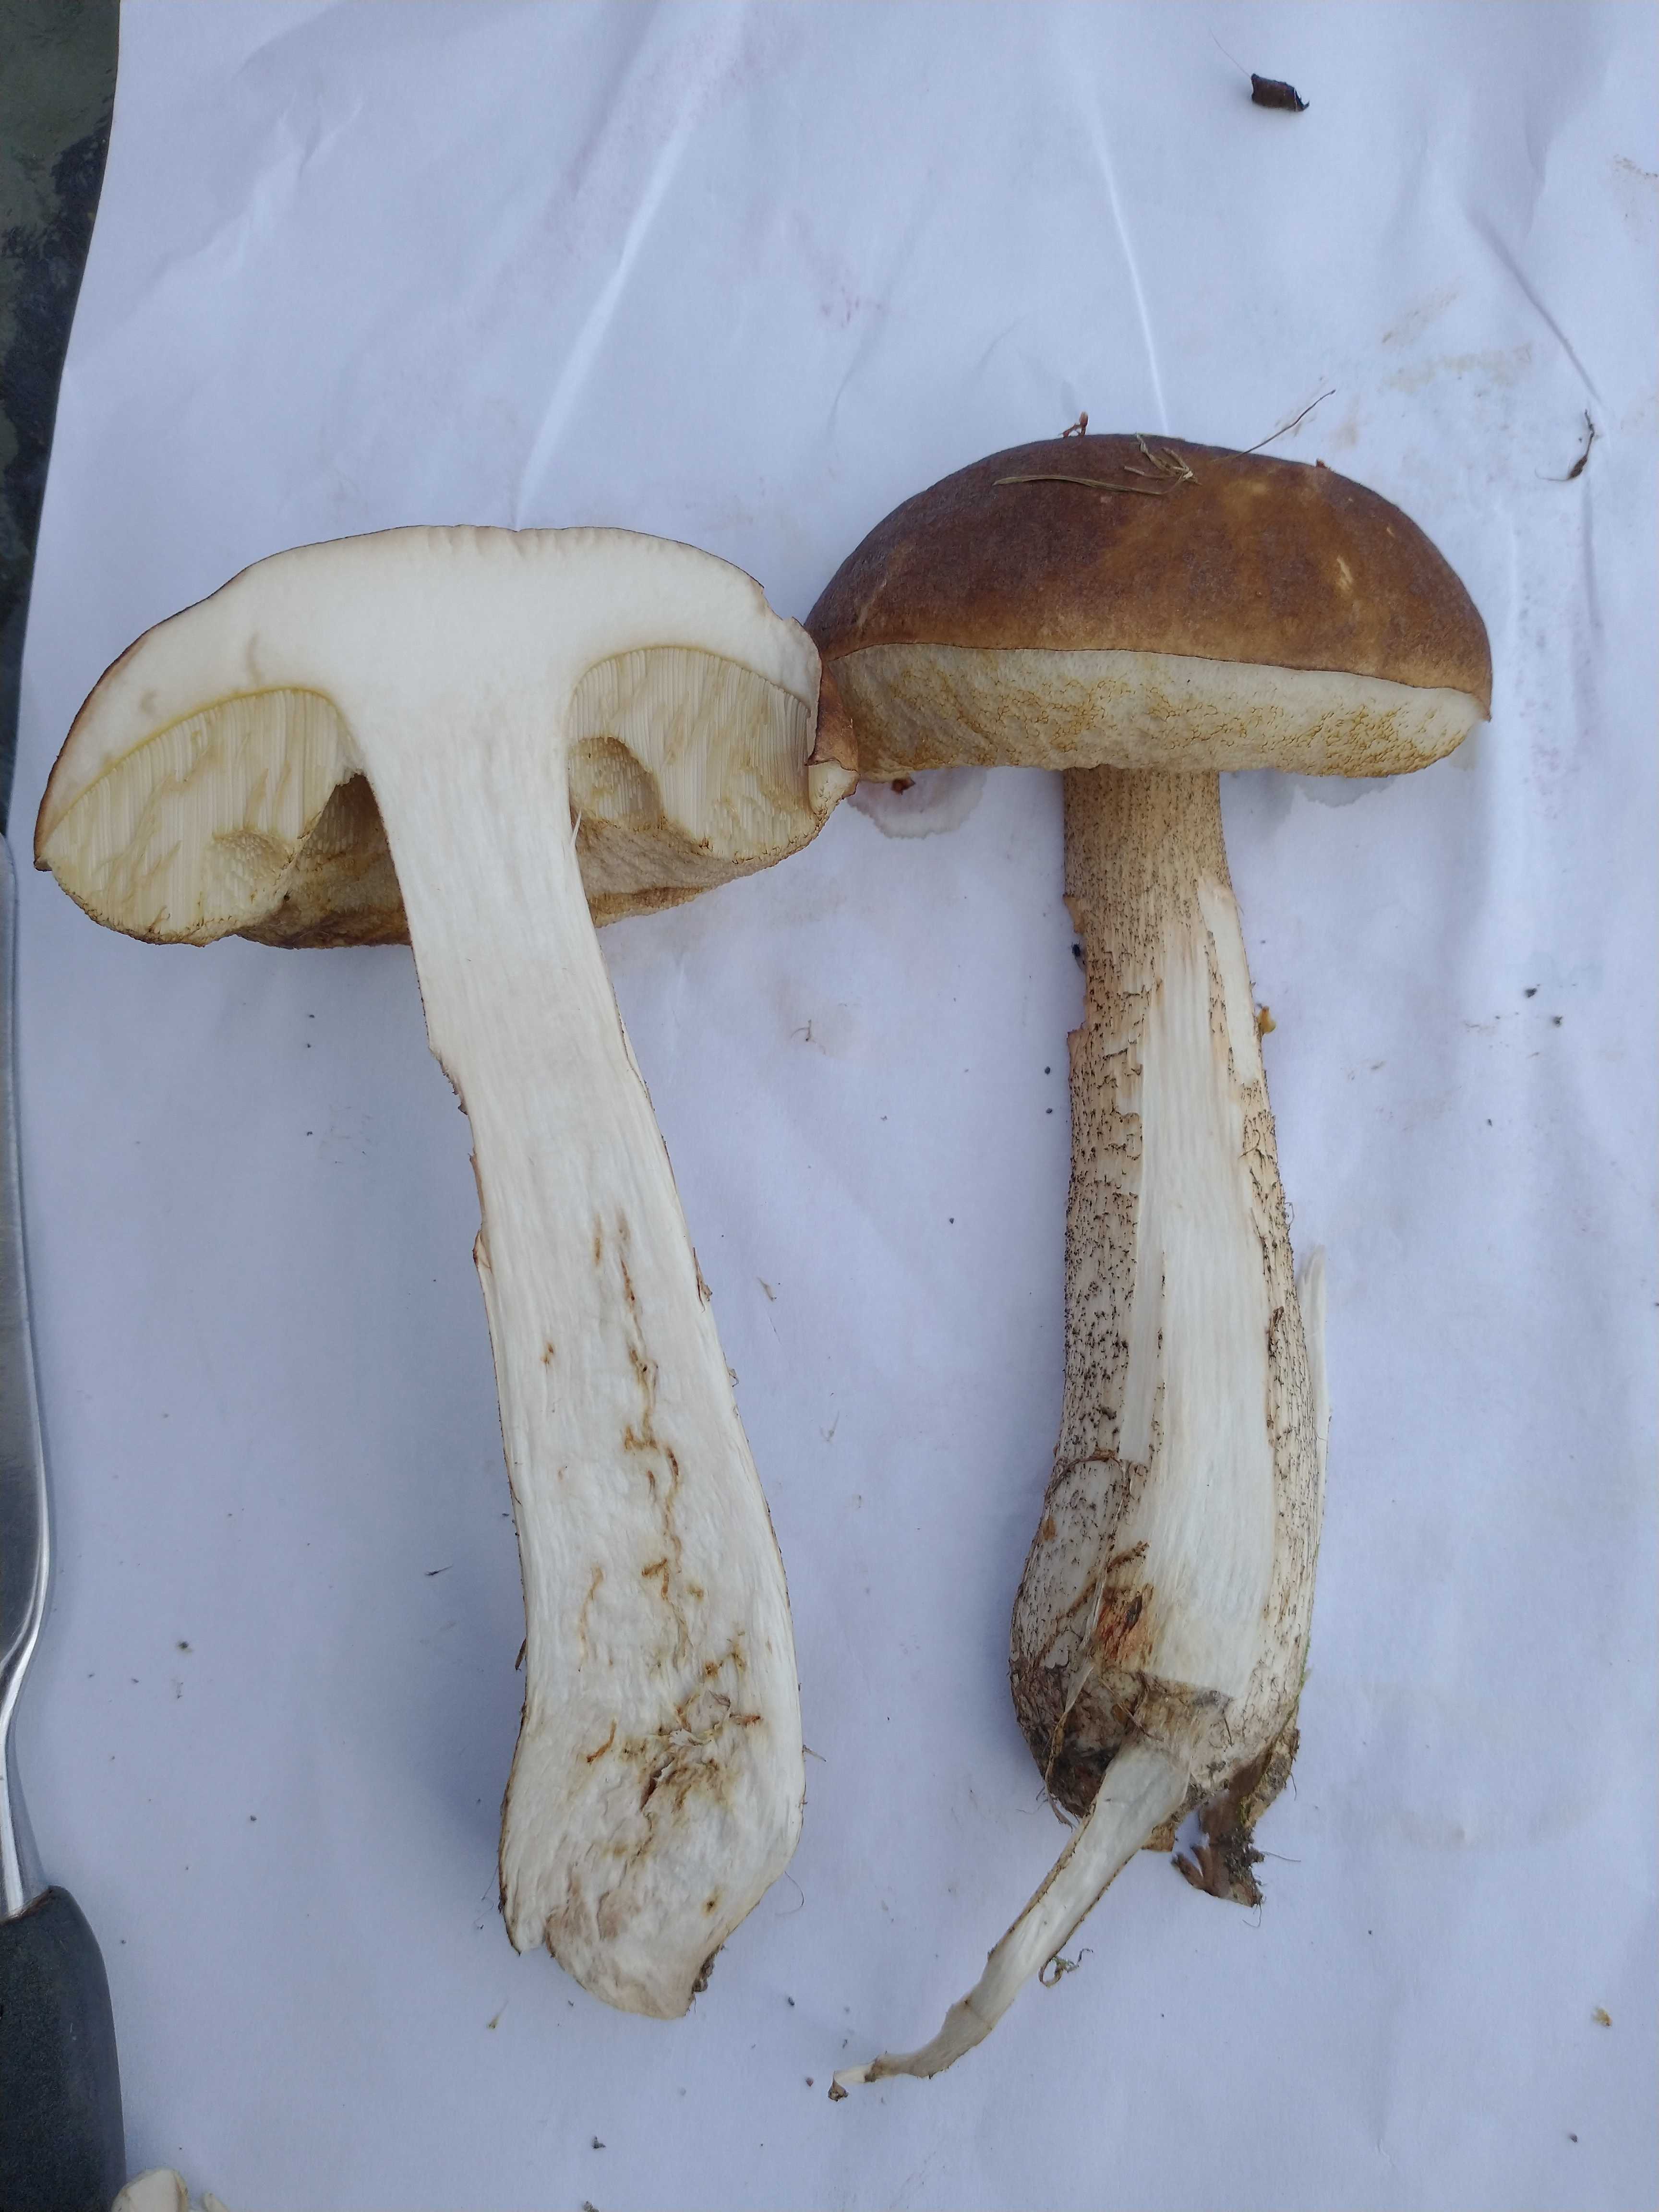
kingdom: Fungi
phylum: Basidiomycota
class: Agaricomycetes
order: Boletales
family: Boletaceae
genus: Leccinum
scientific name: Leccinum scabrum
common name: brun skælrørhat
